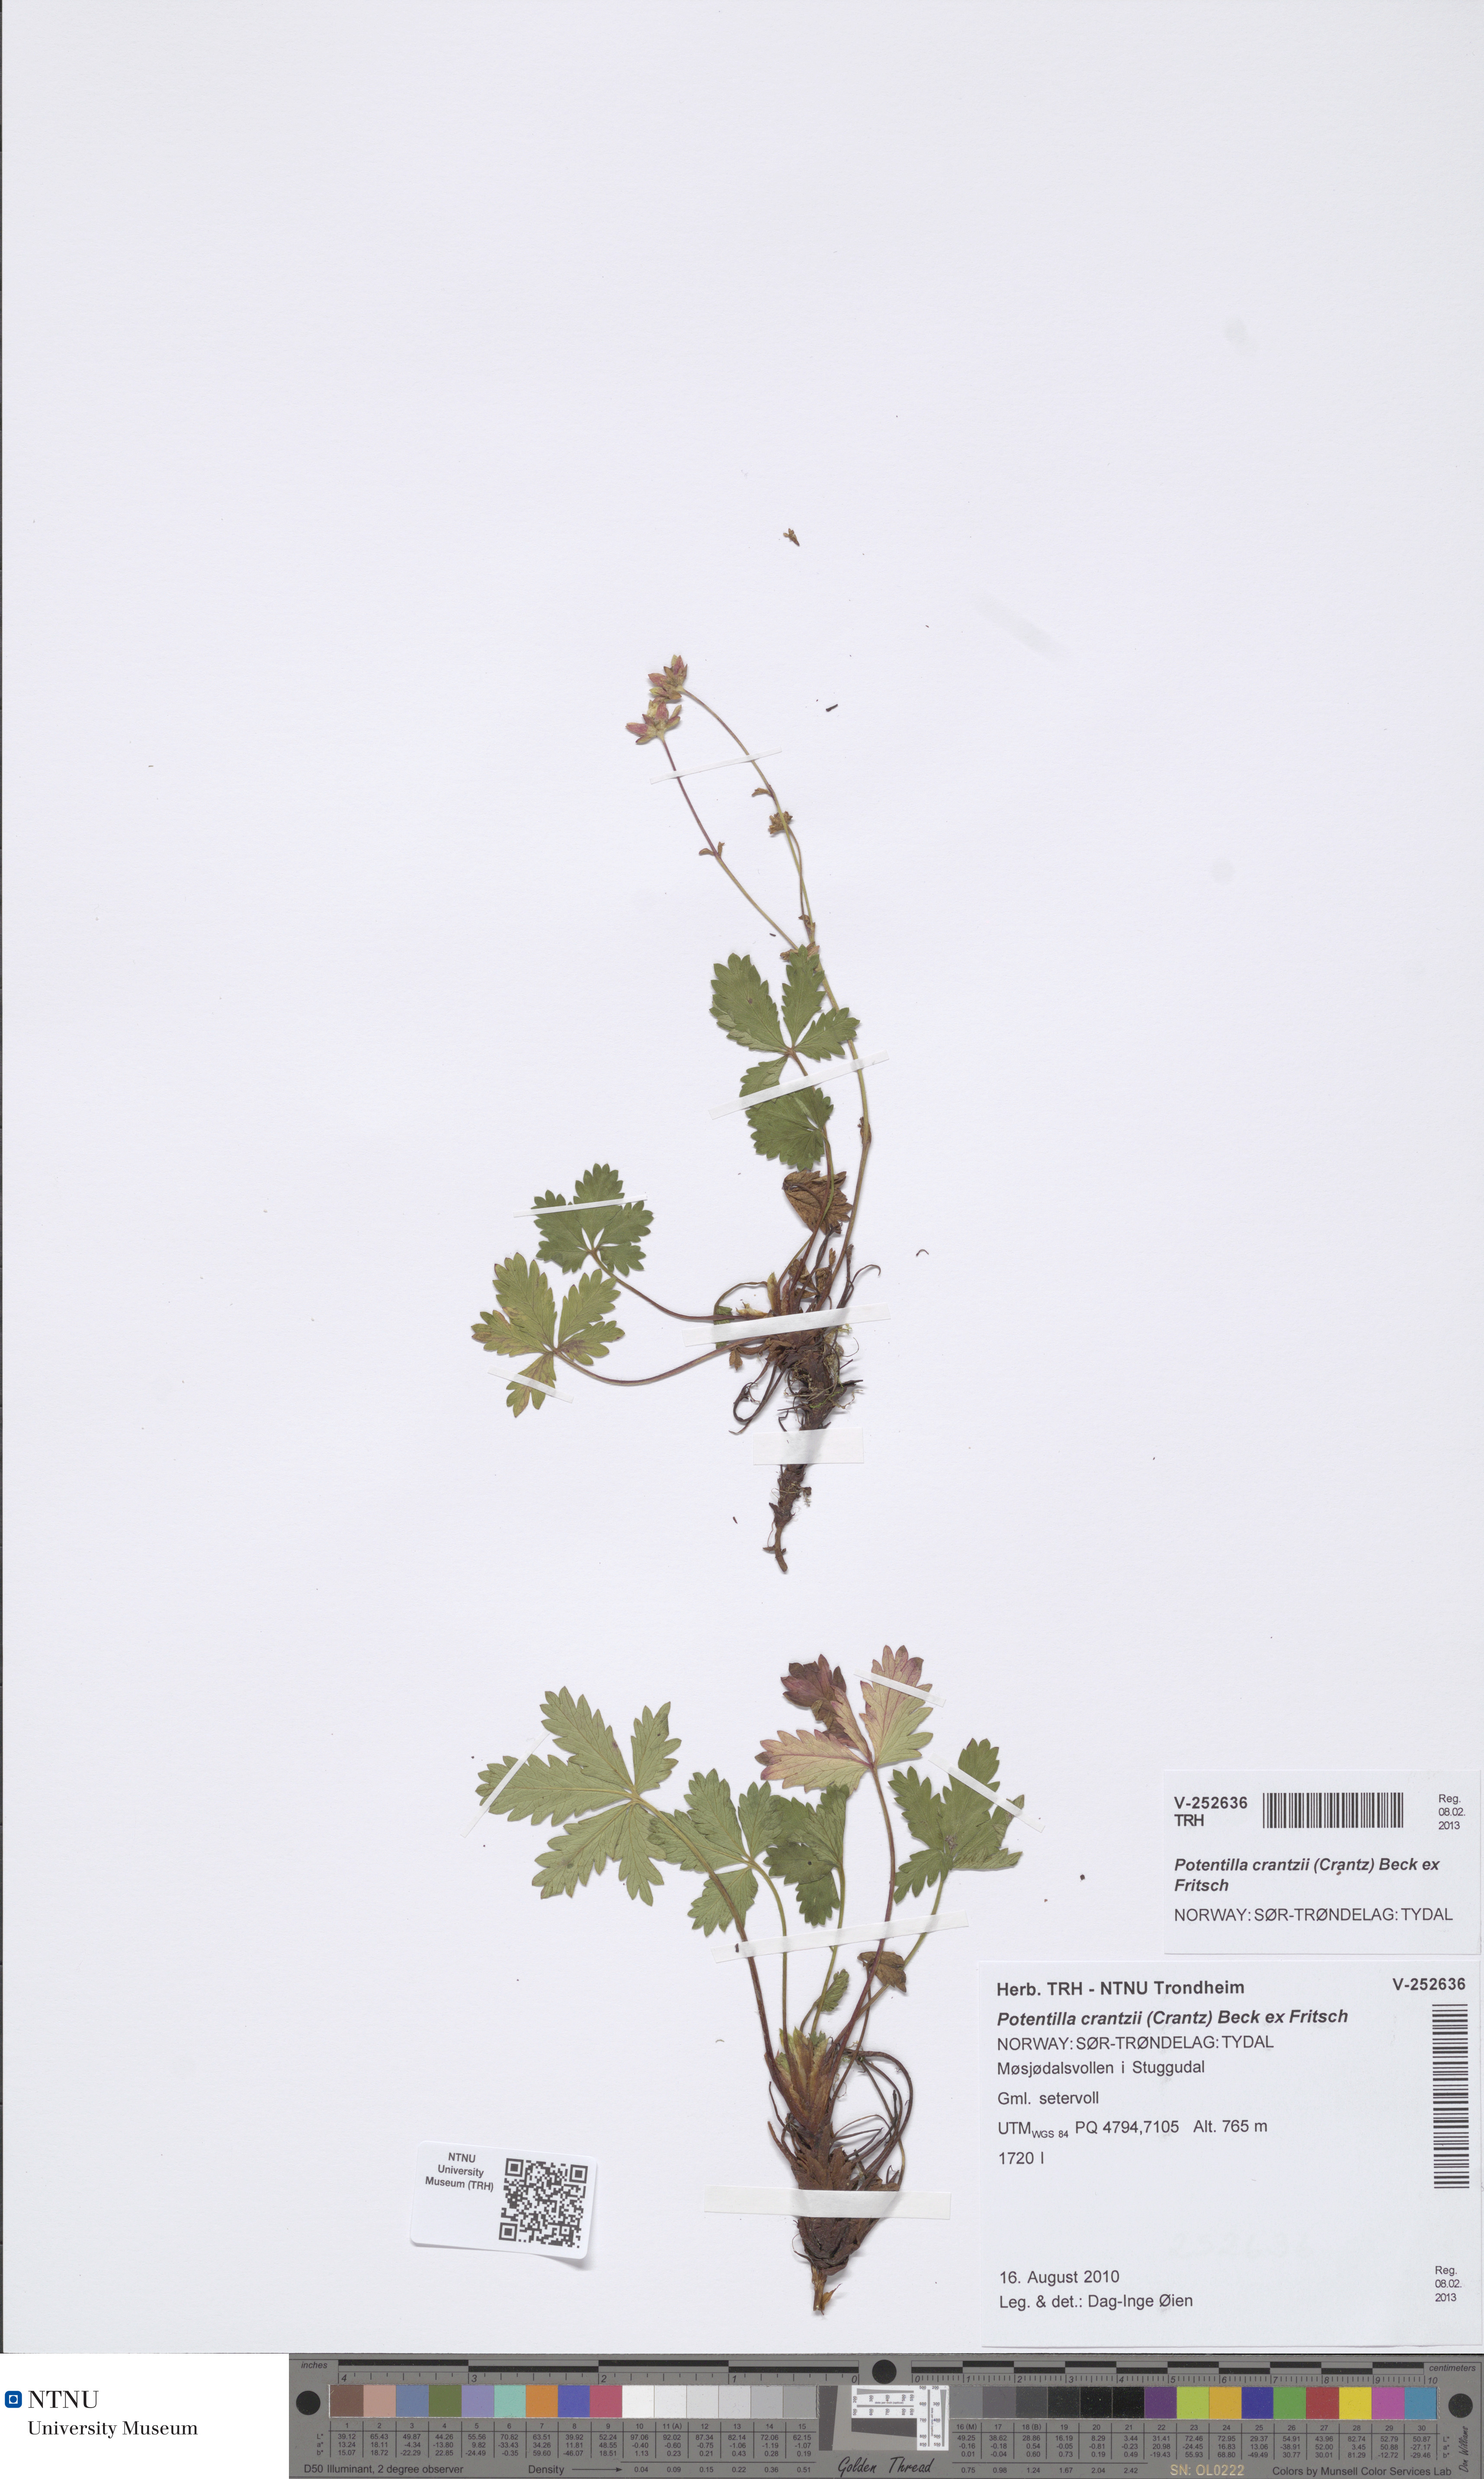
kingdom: Plantae
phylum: Tracheophyta
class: Magnoliopsida
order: Rosales
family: Rosaceae
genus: Potentilla
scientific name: Potentilla crantzii
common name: Alpine cinquefoil
